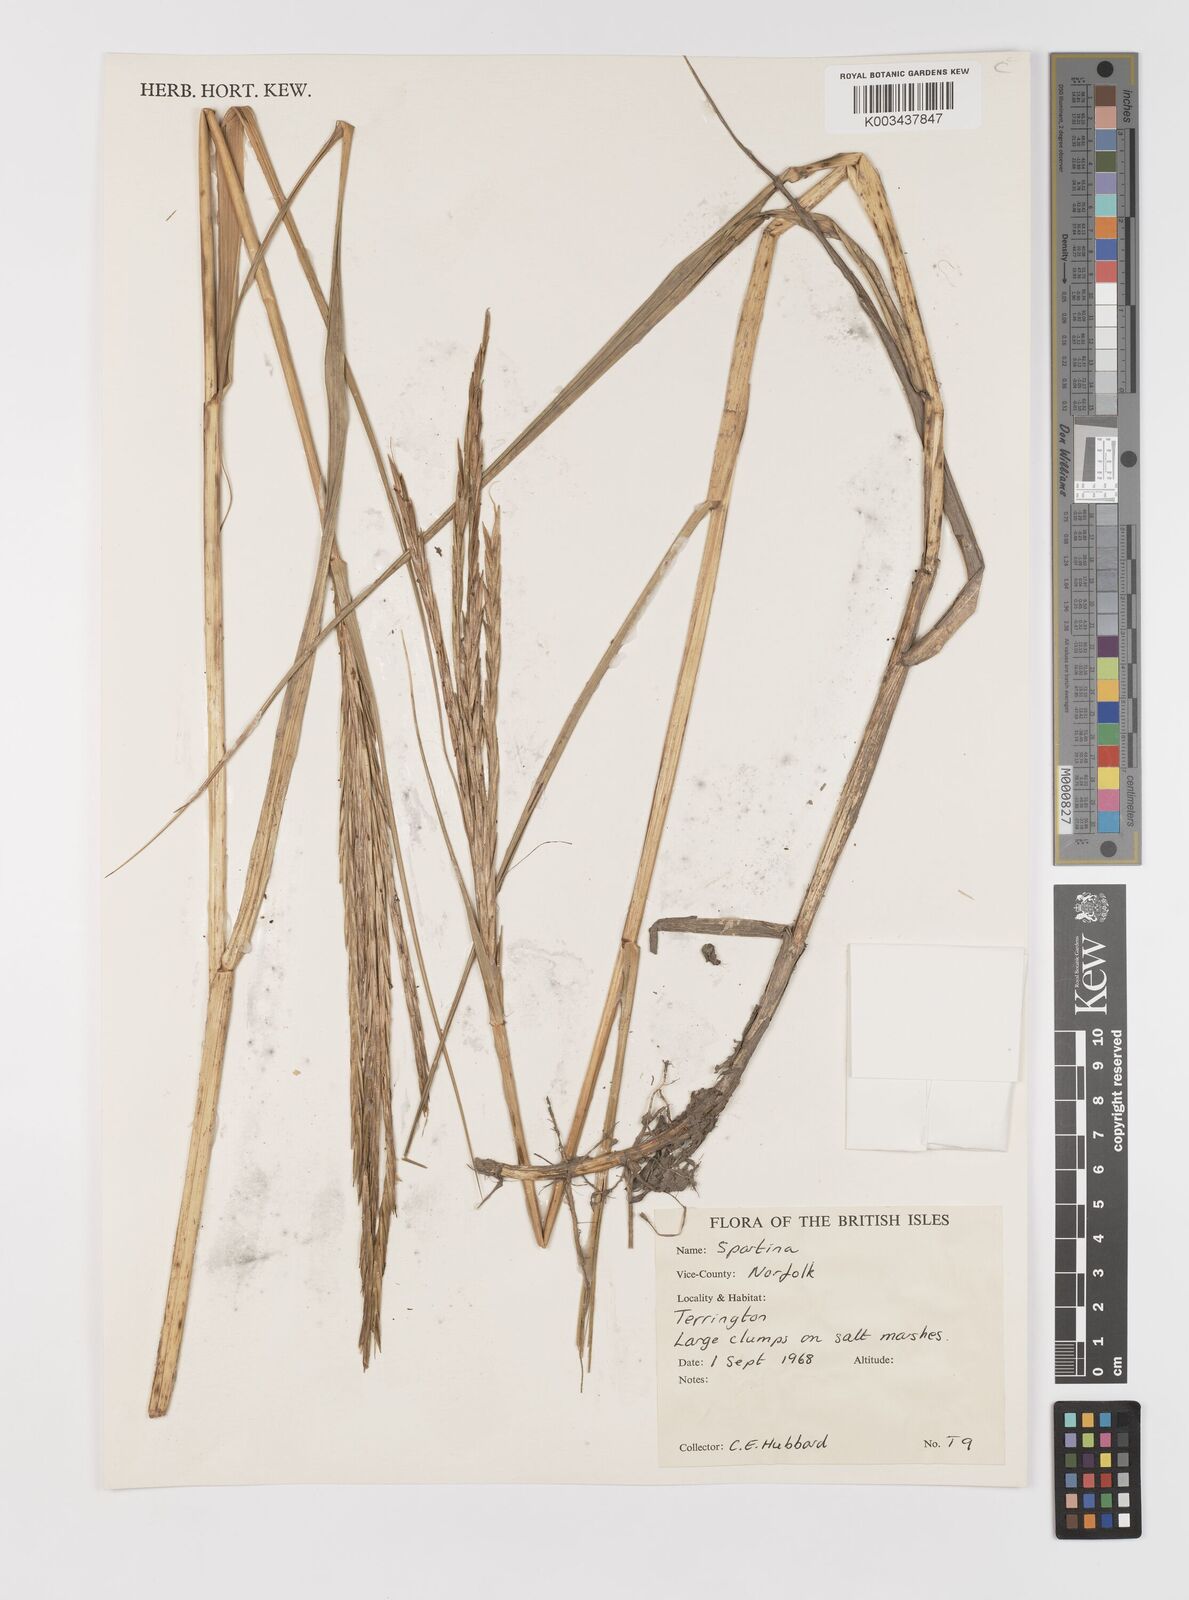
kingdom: Animalia
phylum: Mollusca
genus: Spartina
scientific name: Spartina
